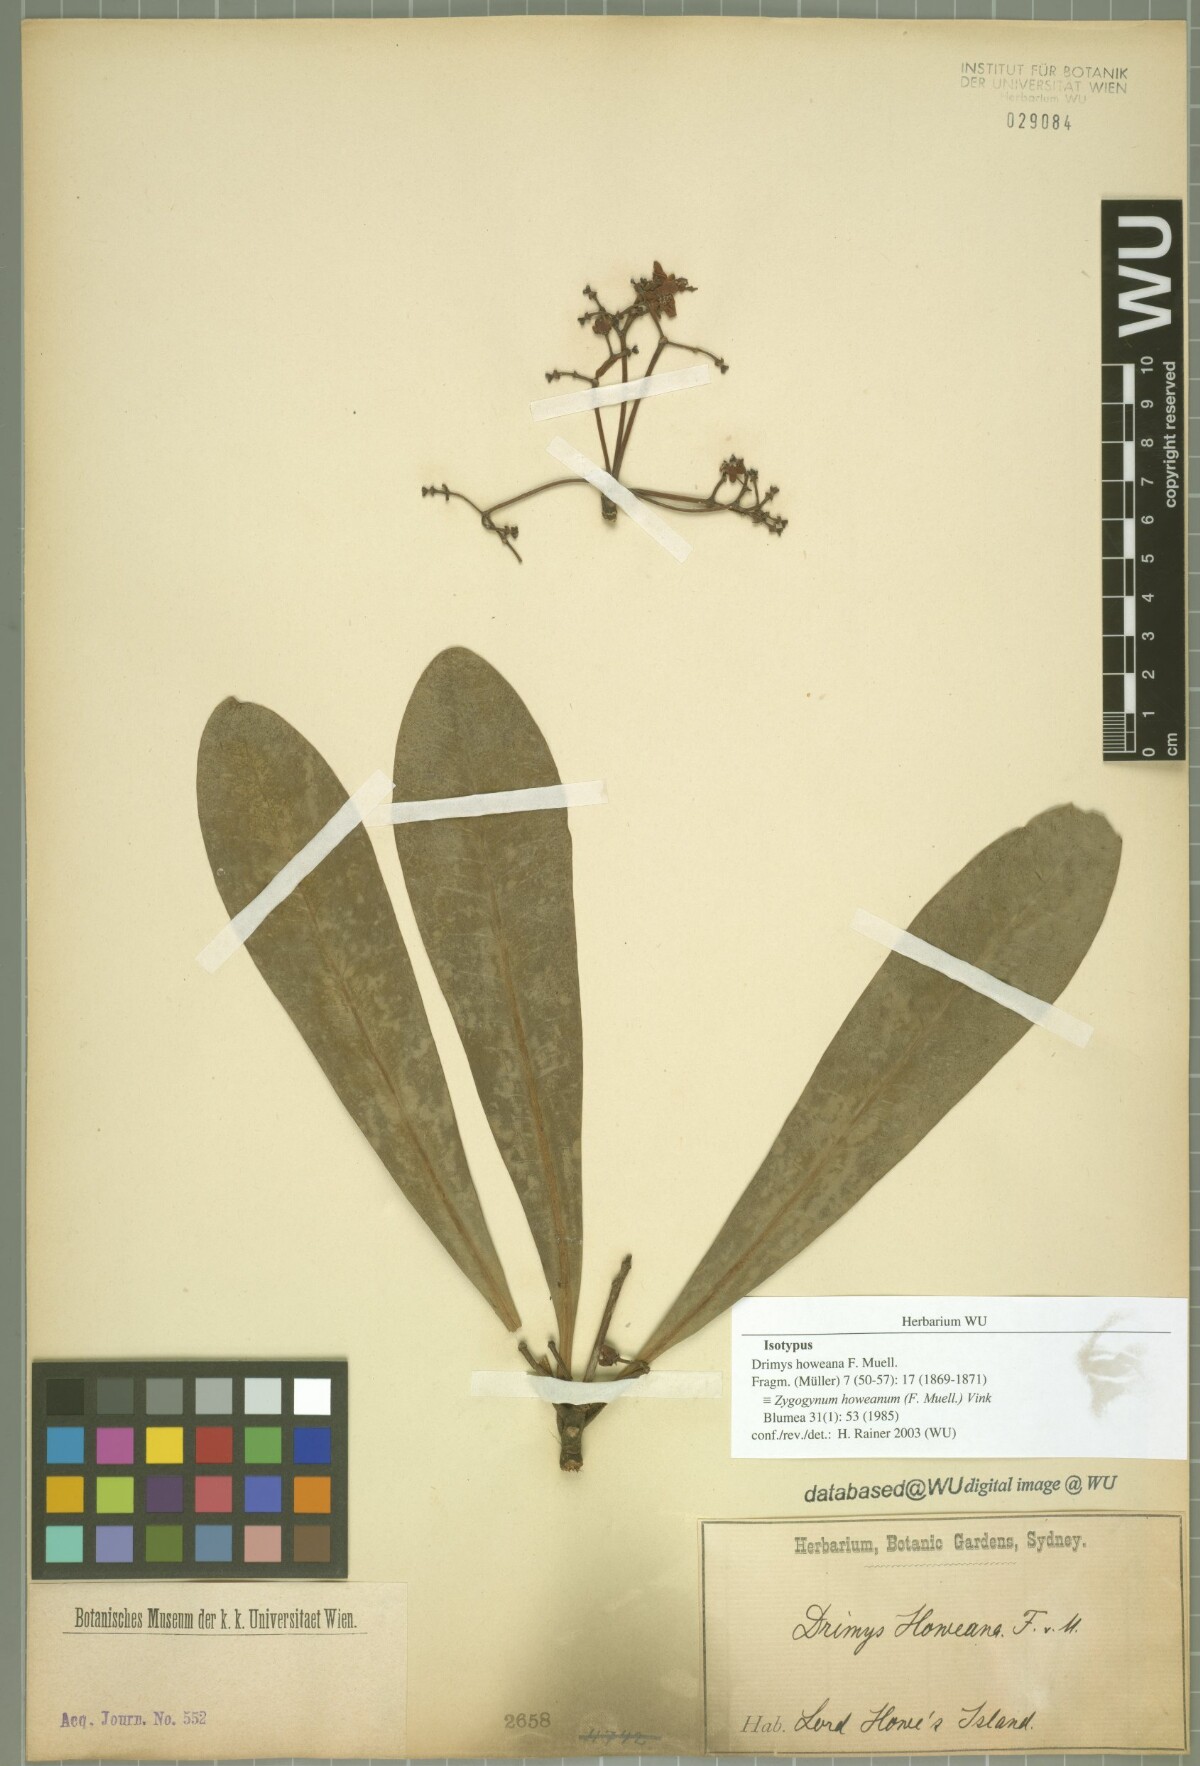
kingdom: Plantae
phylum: Tracheophyta
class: Magnoliopsida
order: Canellales
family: Winteraceae
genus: Zygogynum
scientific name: Zygogynum howeanum
